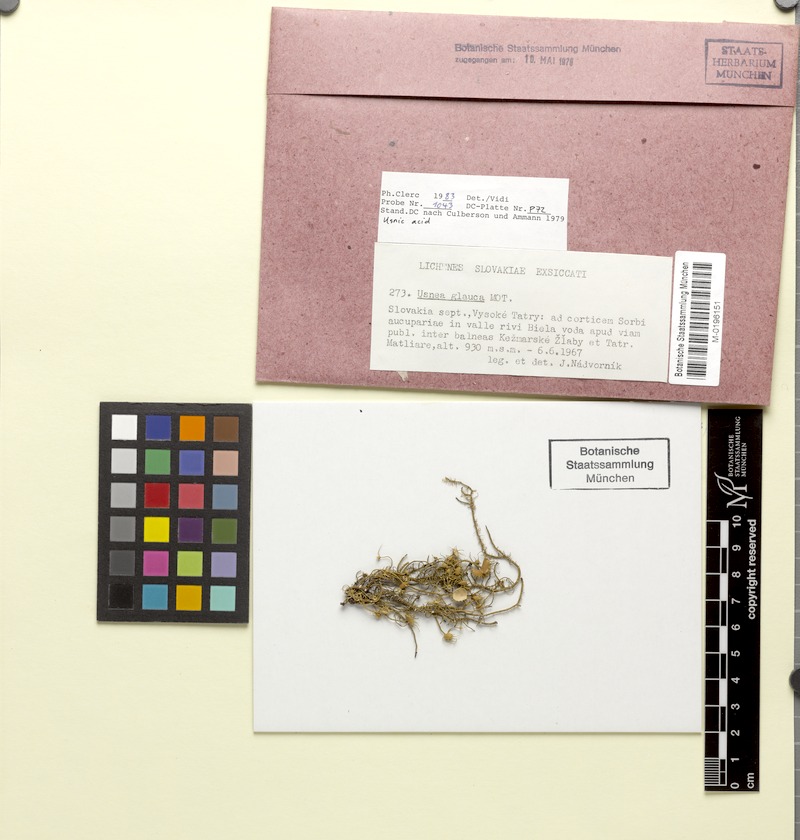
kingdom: Fungi
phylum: Ascomycota
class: Lecanoromycetes
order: Lecanorales
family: Parmeliaceae
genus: Usnea
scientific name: Usnea glauca
